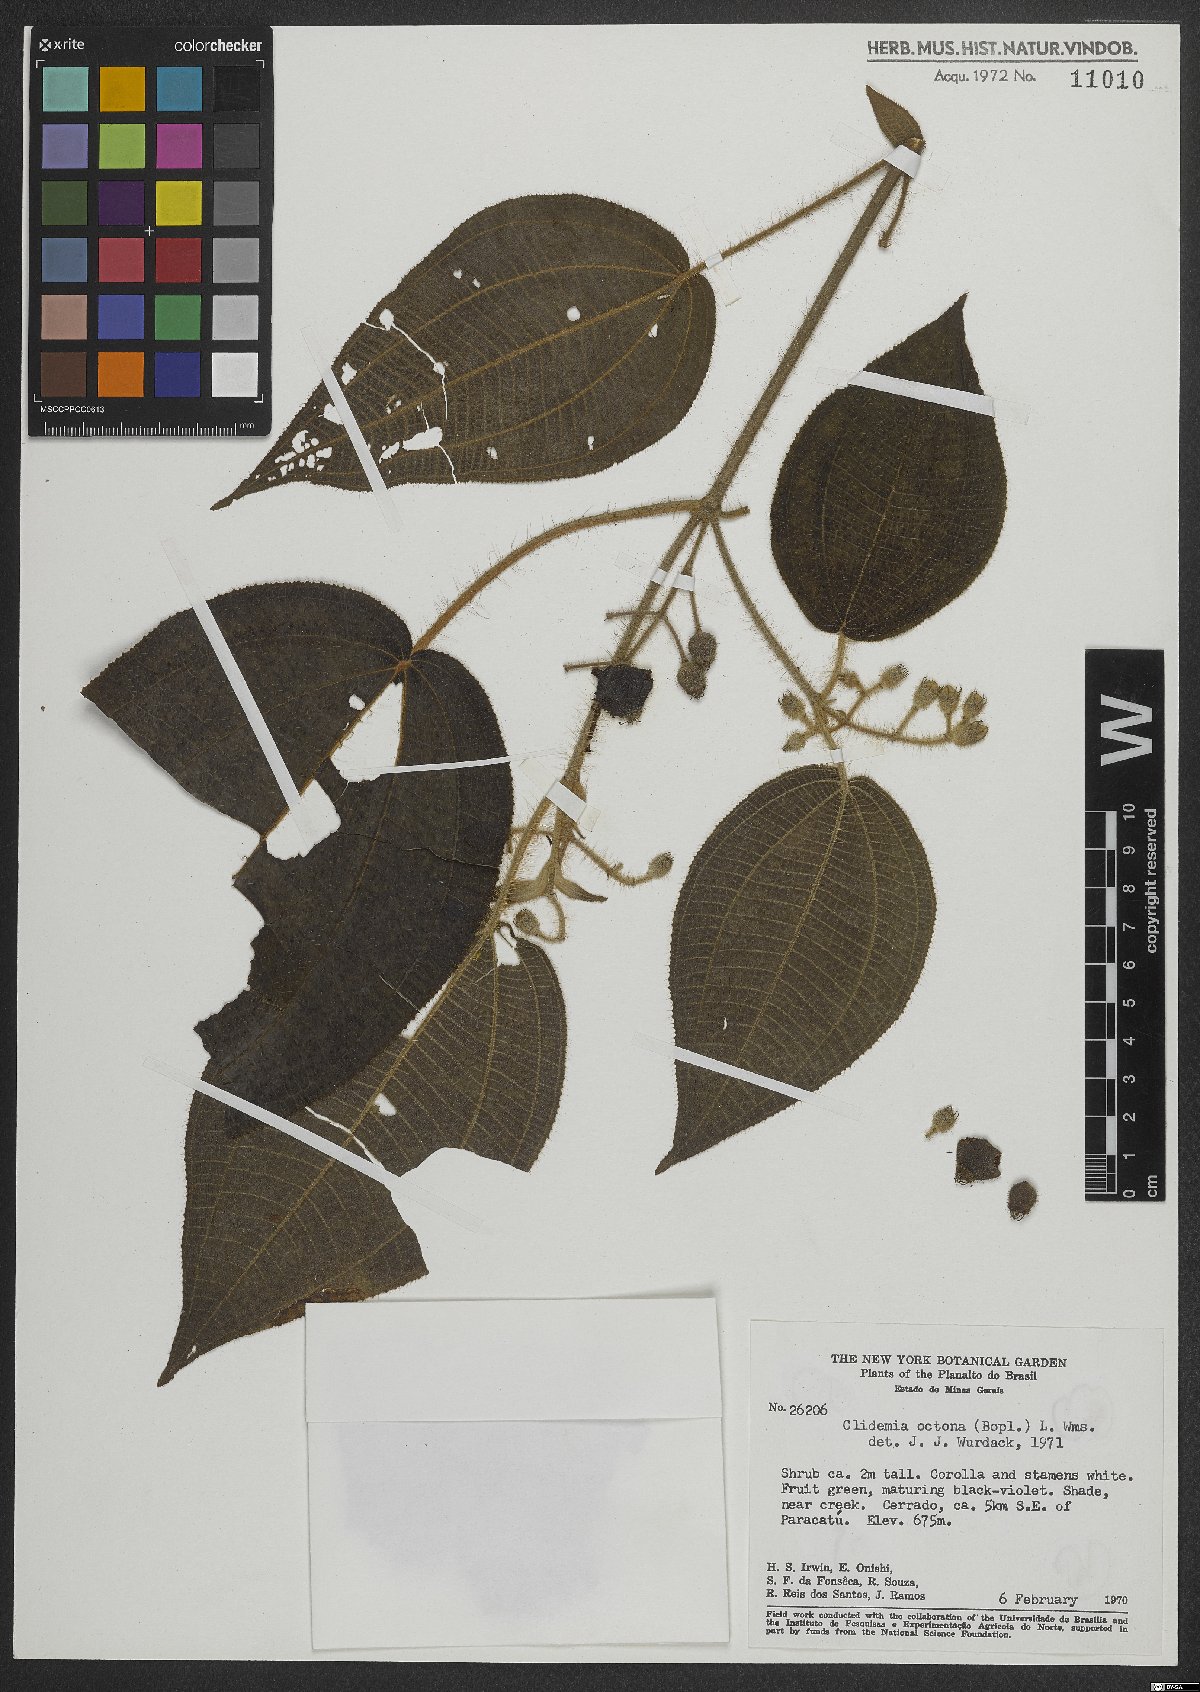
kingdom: Plantae
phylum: Tracheophyta
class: Magnoliopsida
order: Myrtales
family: Melastomataceae
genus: Miconia
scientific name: Miconia octona
